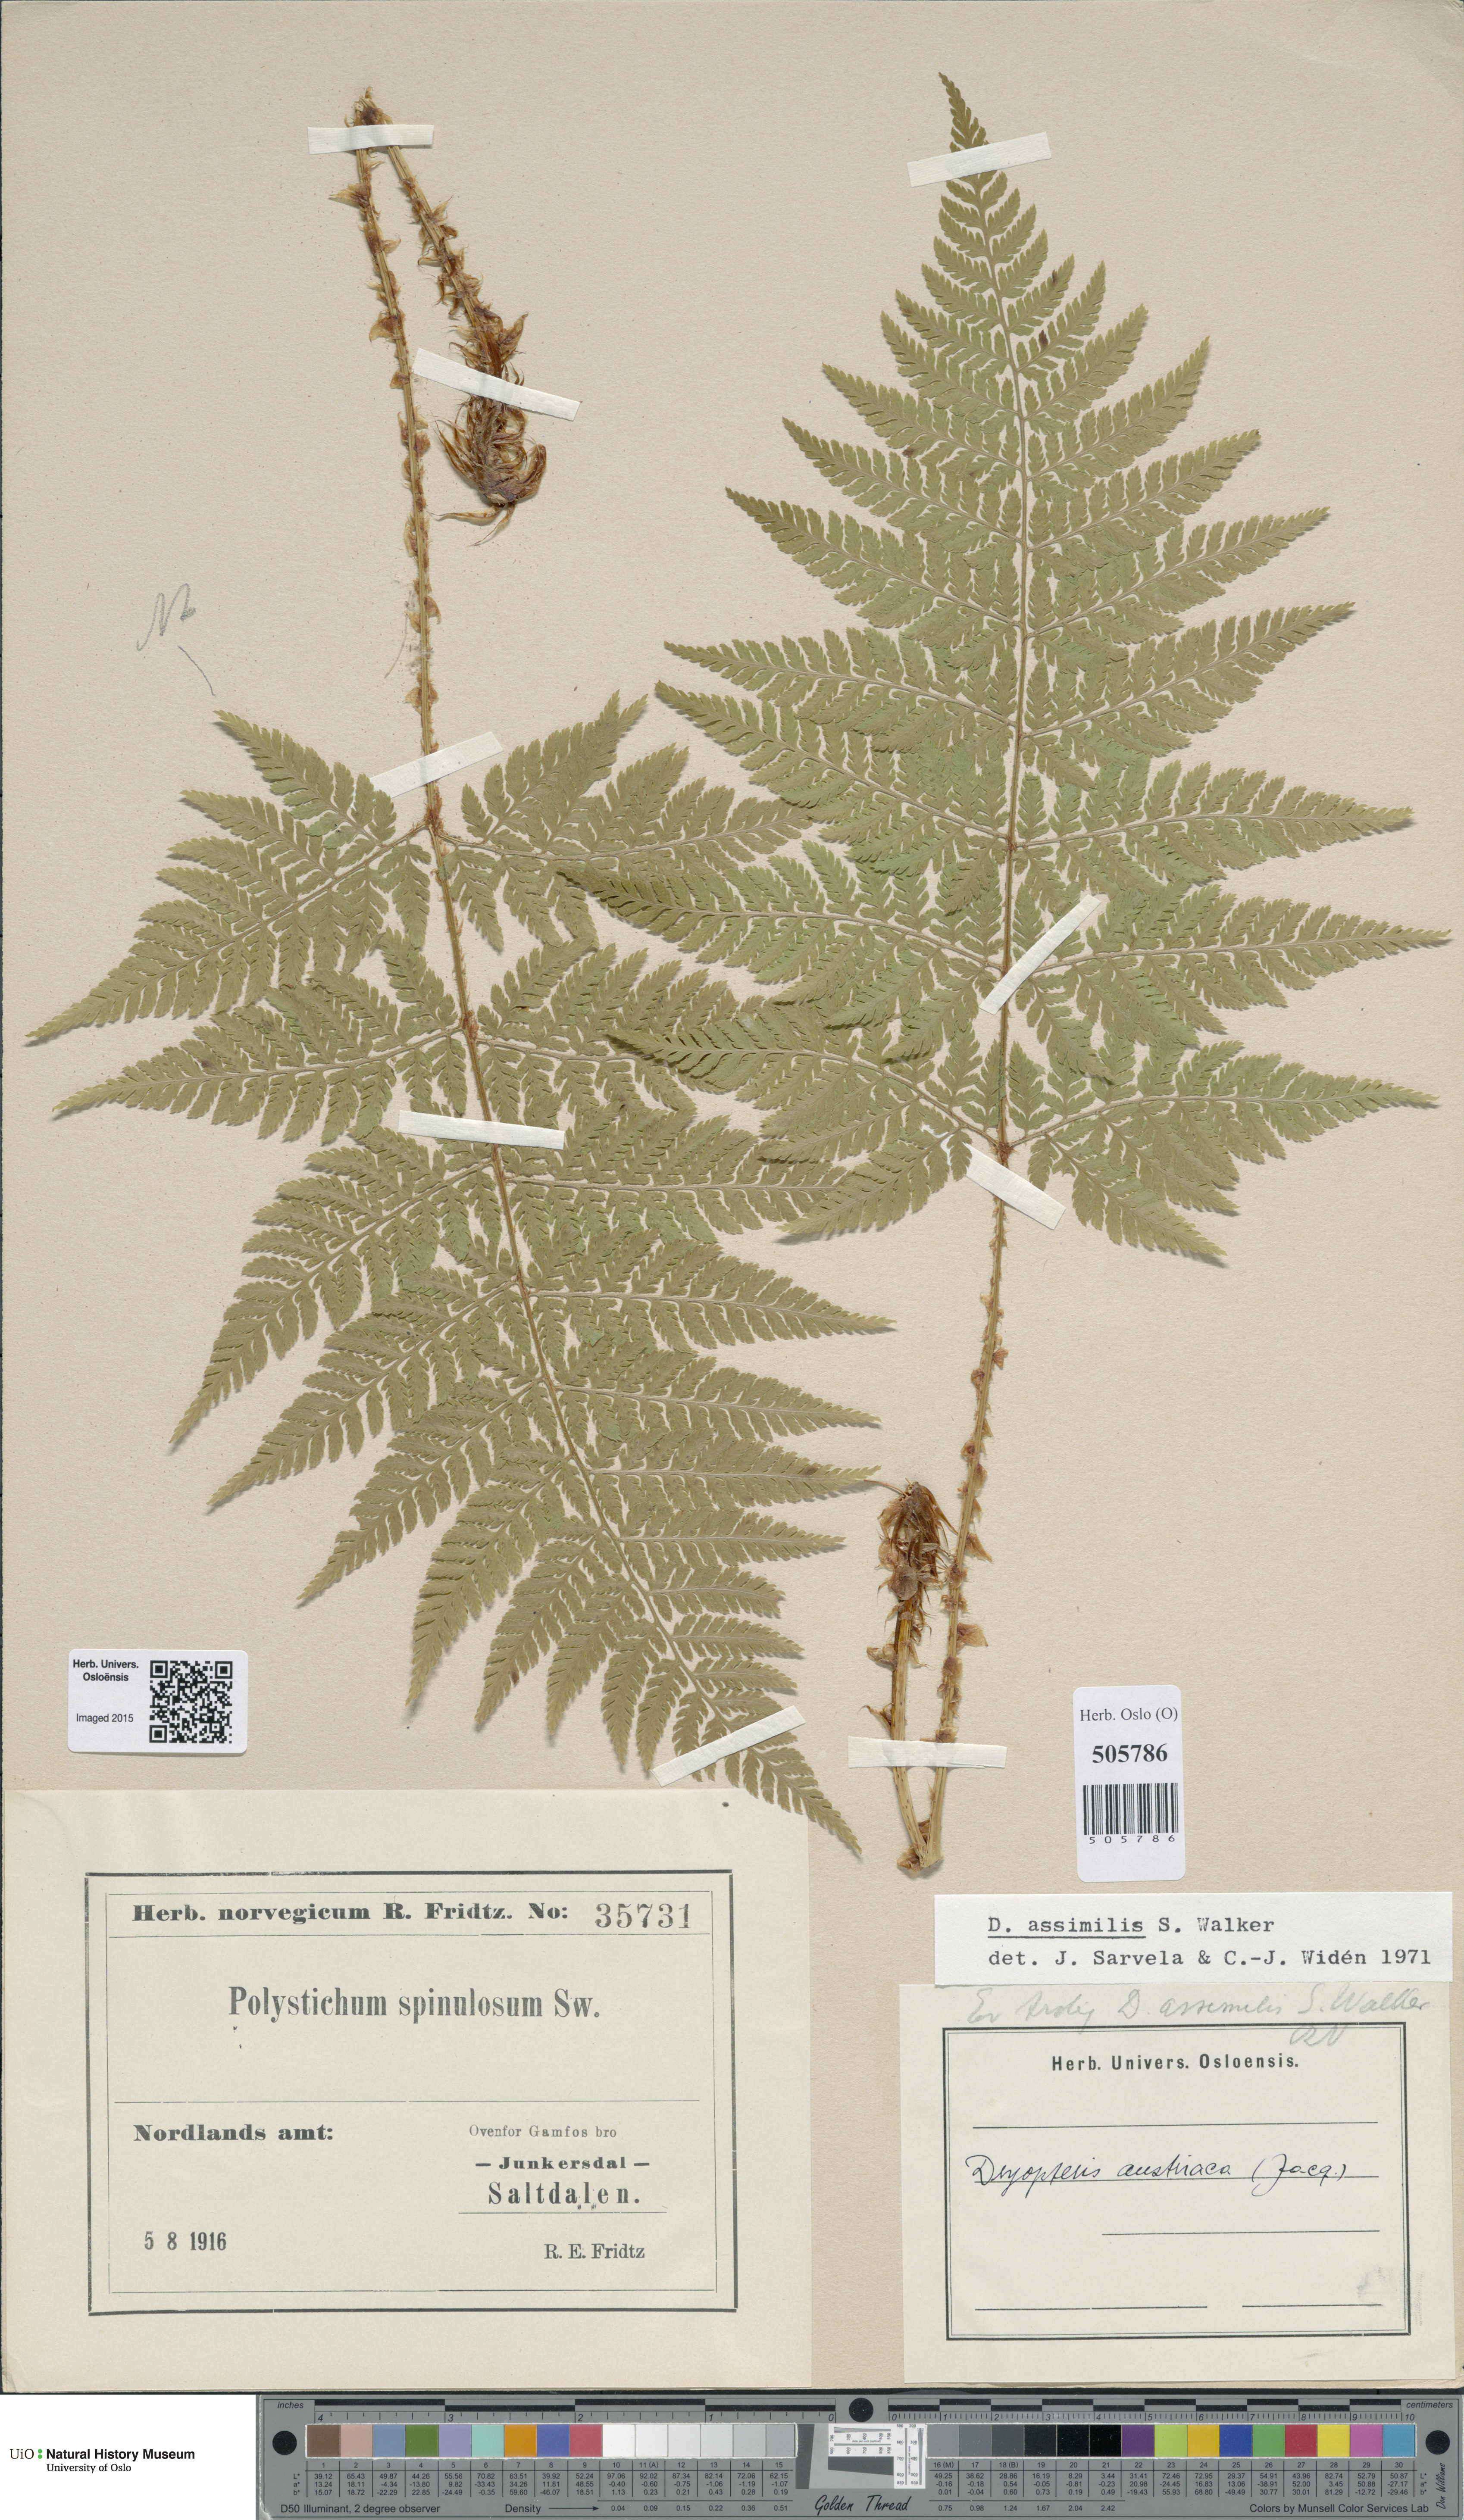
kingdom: Plantae
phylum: Tracheophyta
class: Polypodiopsida
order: Polypodiales
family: Dryopteridaceae
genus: Dryopteris
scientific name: Dryopteris expansa
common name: Northern buckler fern
